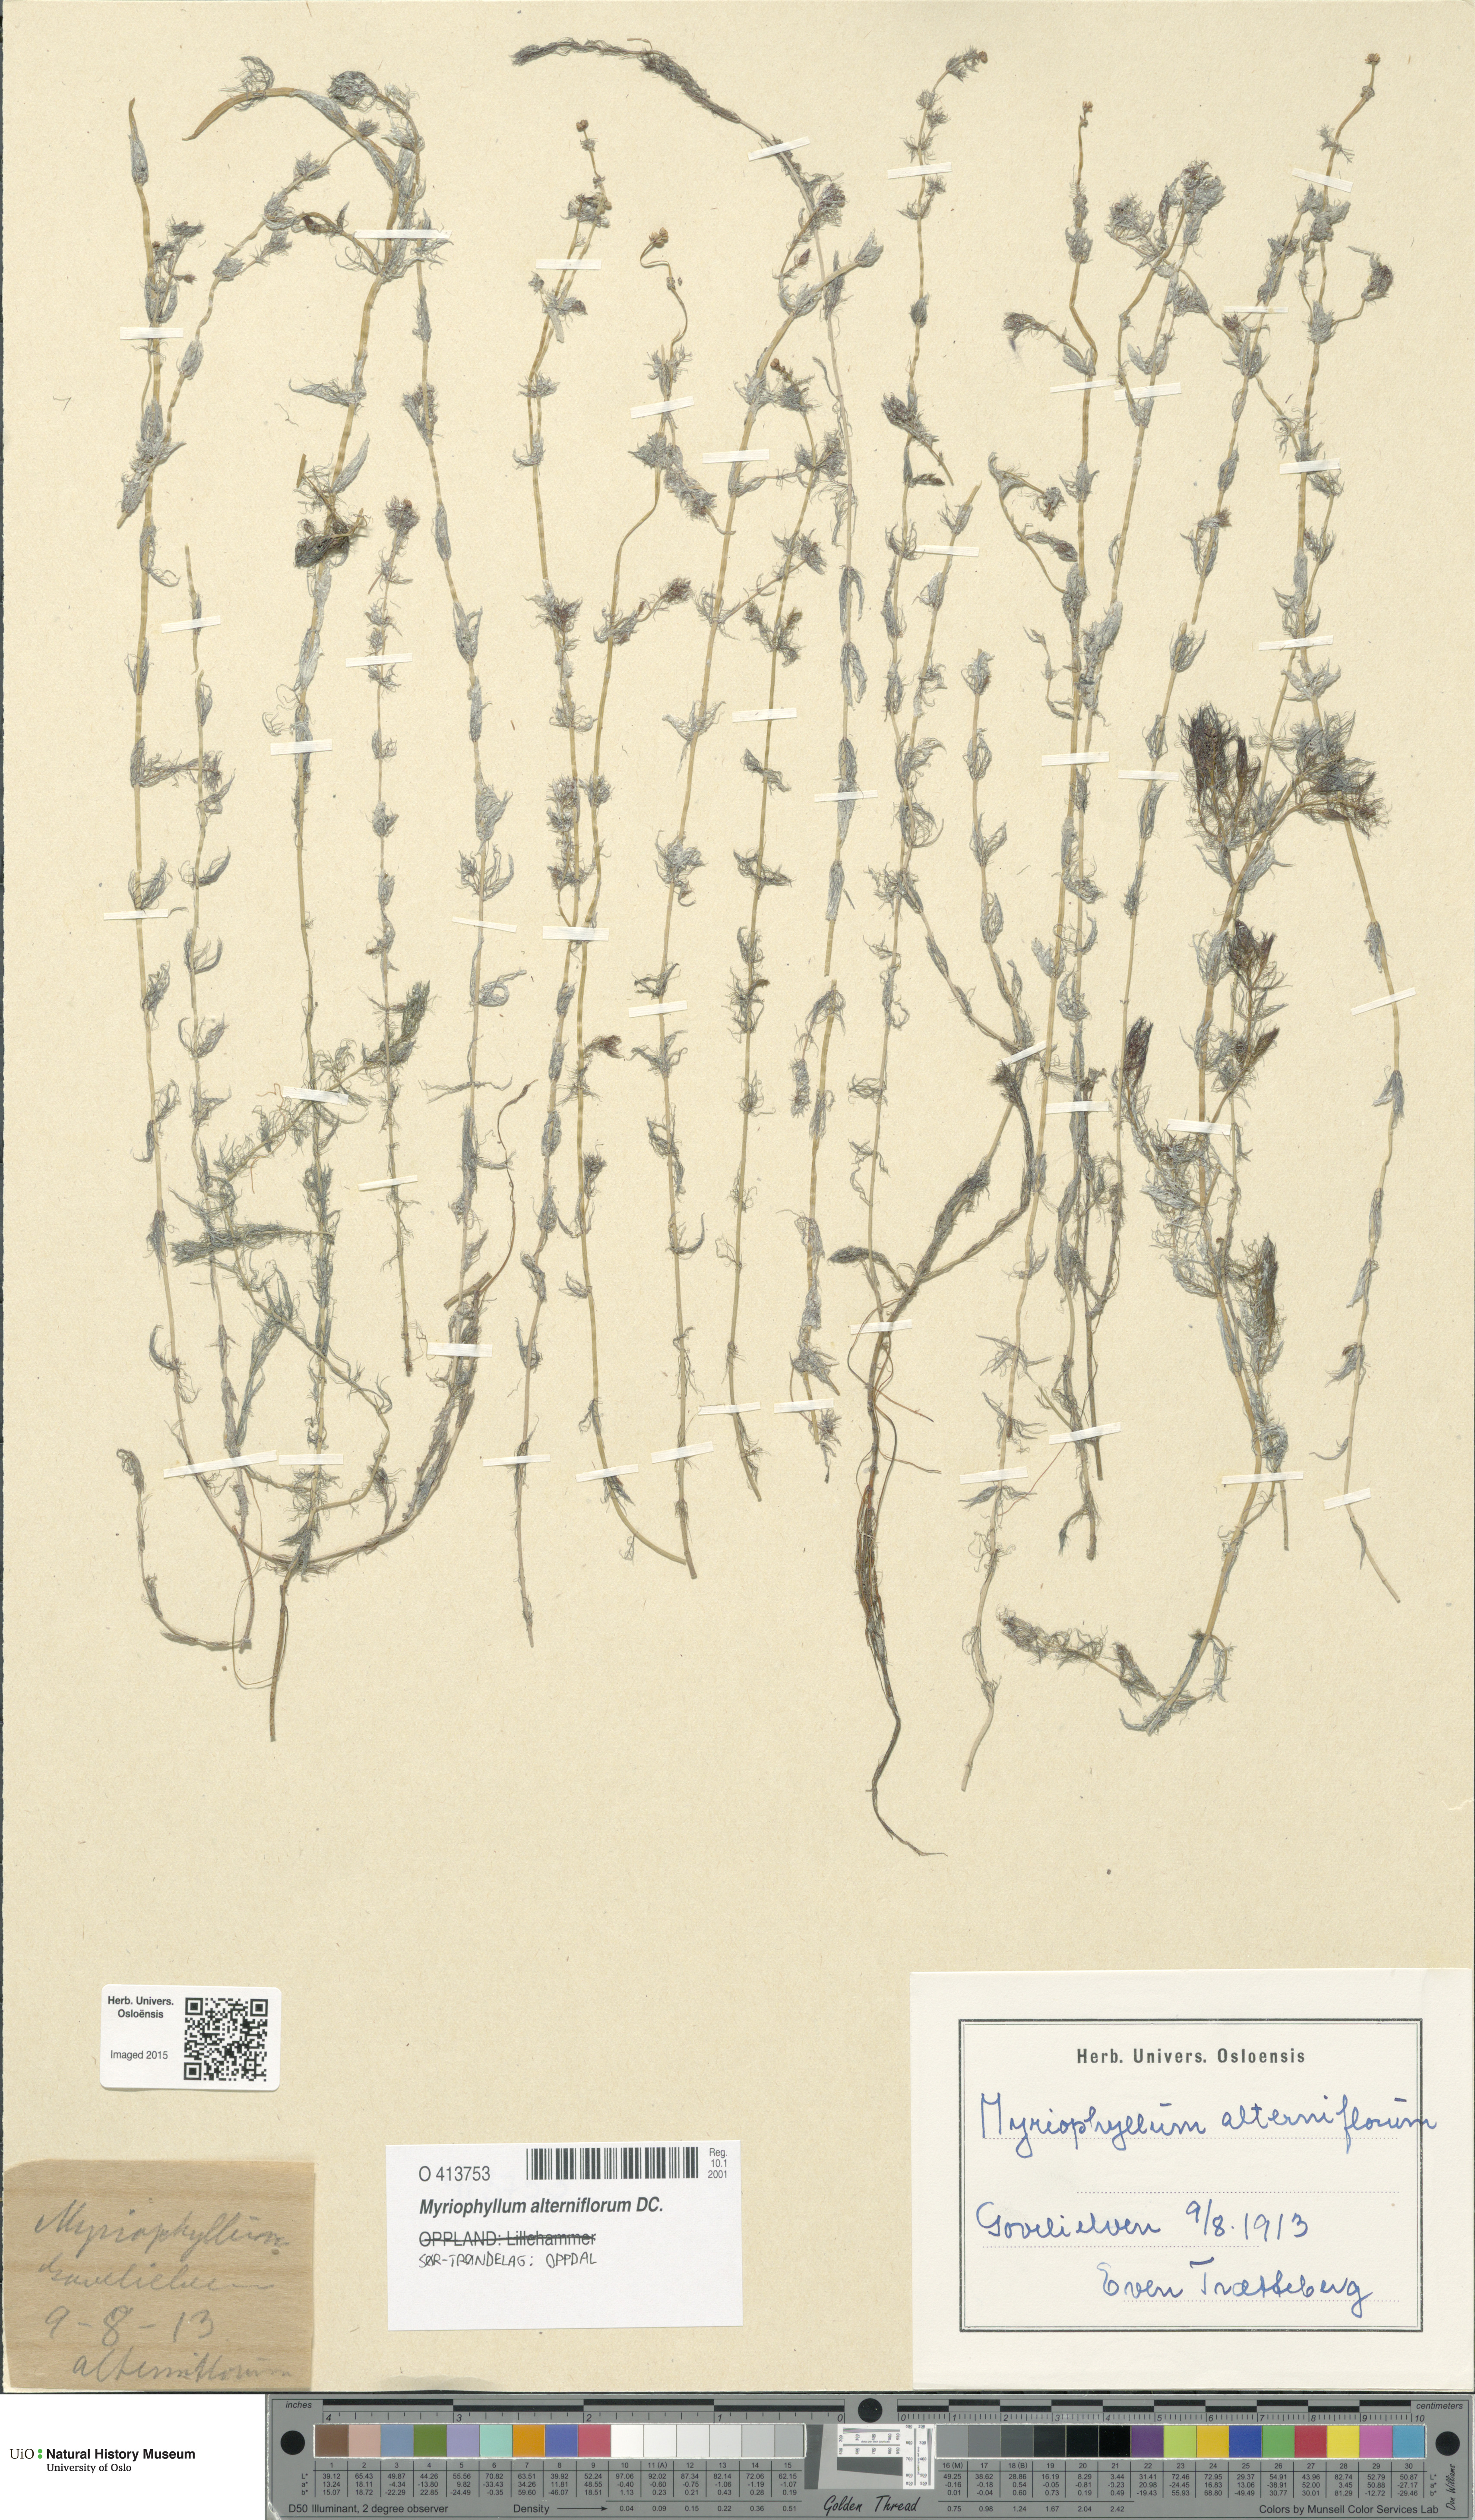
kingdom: Plantae
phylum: Tracheophyta
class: Magnoliopsida
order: Saxifragales
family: Haloragaceae
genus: Myriophyllum
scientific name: Myriophyllum alterniflorum
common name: Alternate water-milfoil
